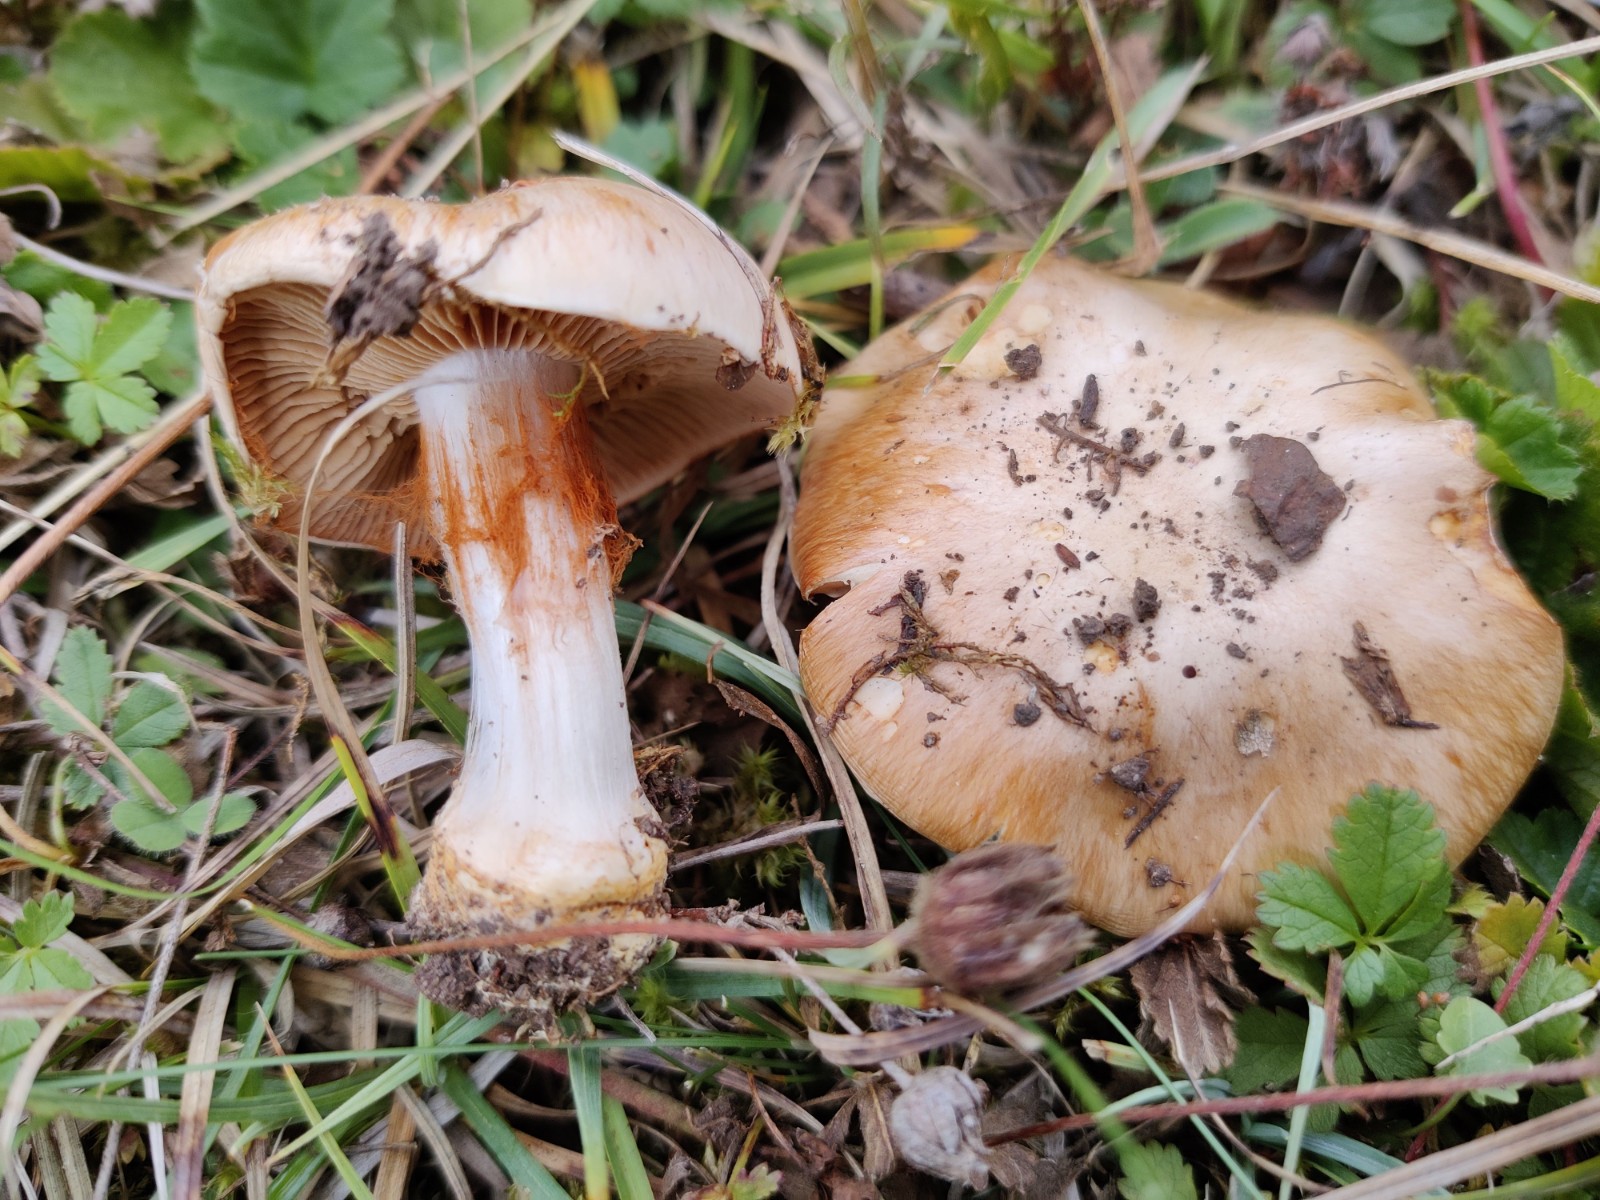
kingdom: Fungi
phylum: Basidiomycota
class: Agaricomycetes
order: Agaricales
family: Cortinariaceae
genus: Phlegmacium
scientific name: Phlegmacium coerulescentium
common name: gråbladet slørhat
